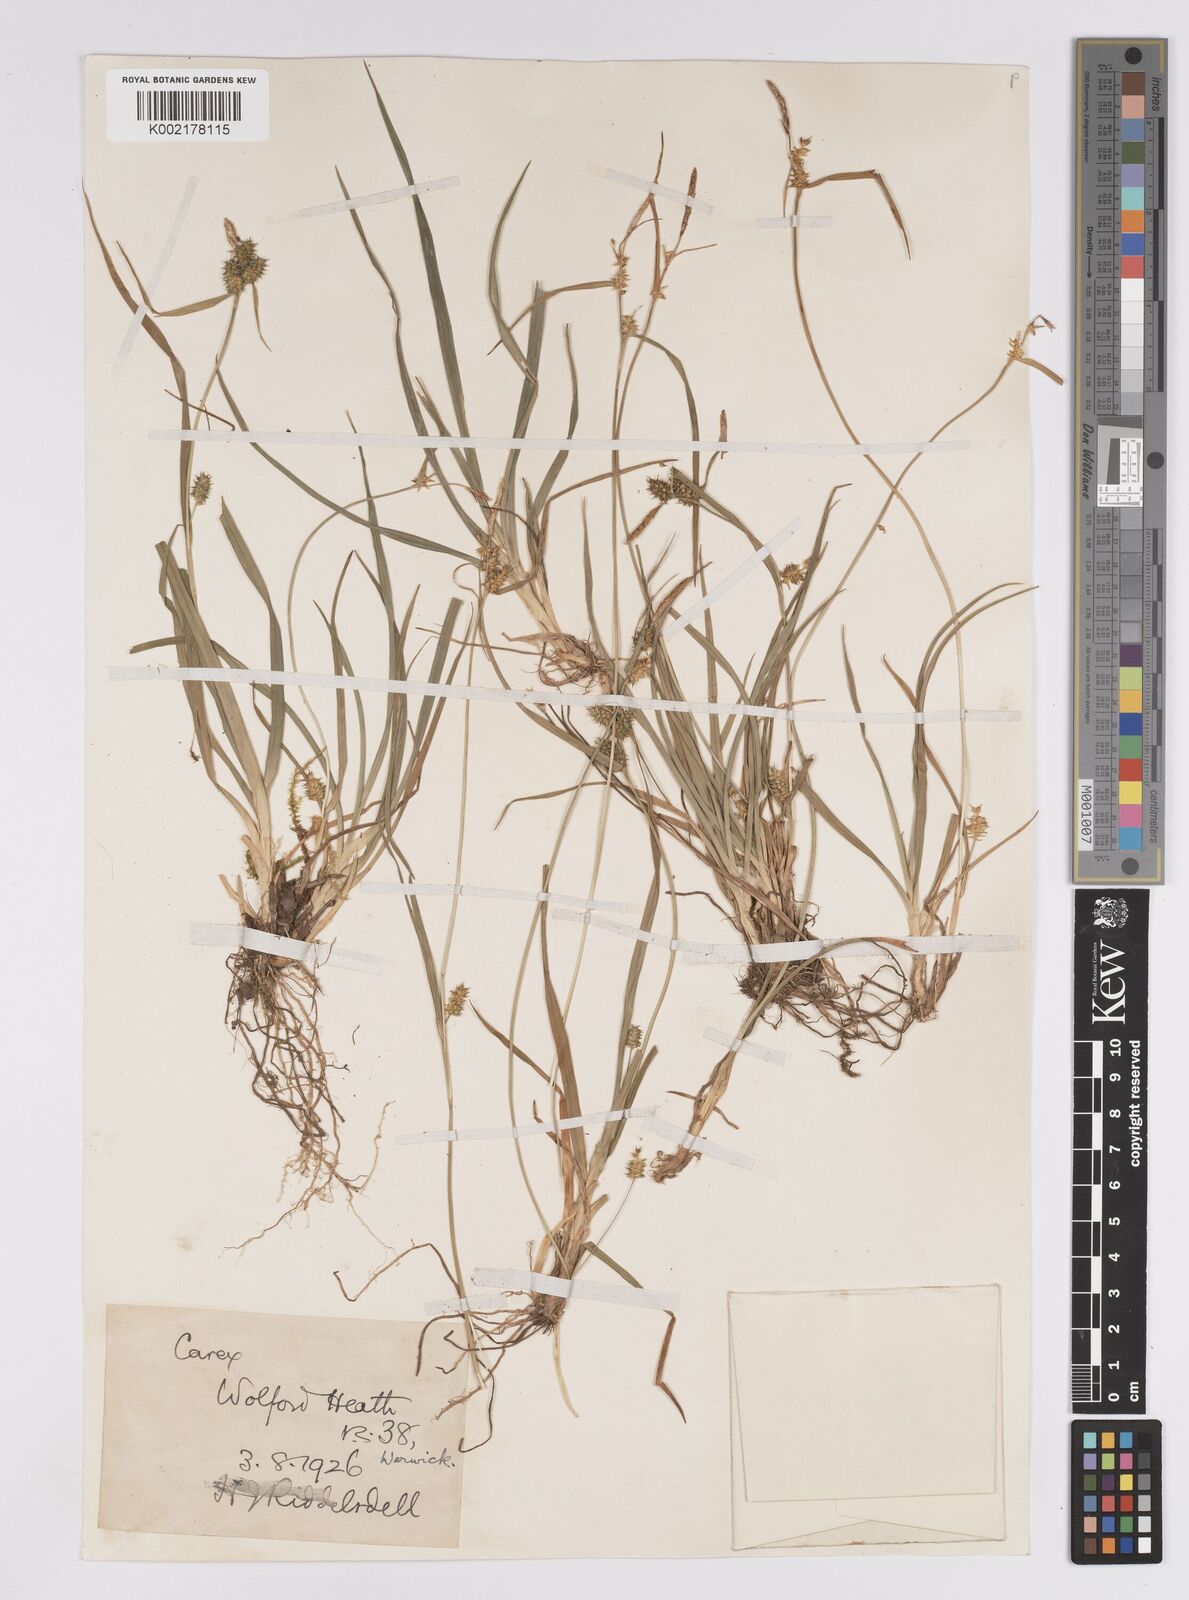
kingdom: Plantae
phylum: Tracheophyta
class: Liliopsida
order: Poales
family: Cyperaceae
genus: Carex
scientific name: Carex demissa
